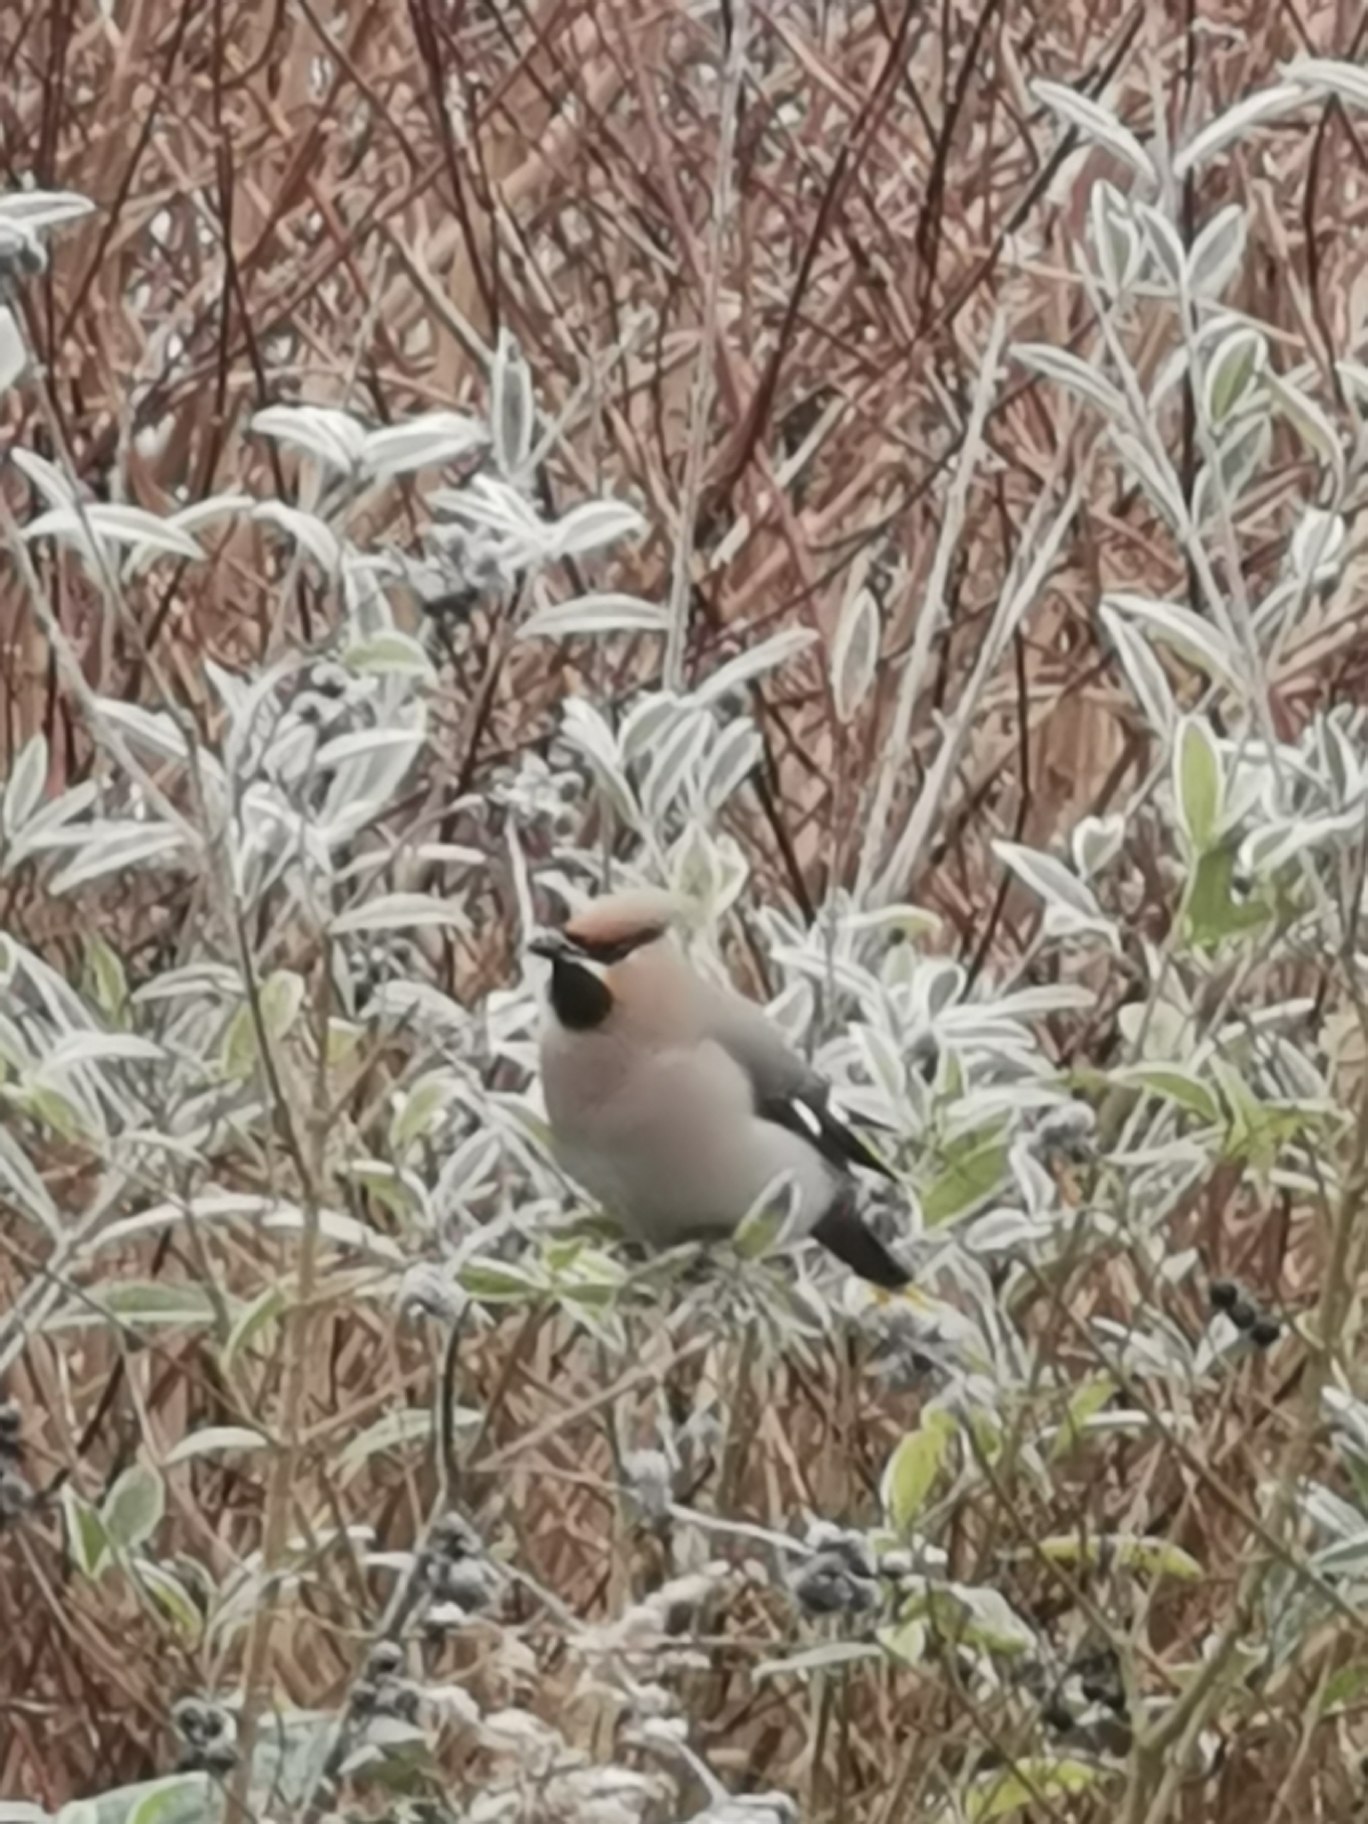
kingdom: Animalia
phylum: Chordata
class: Aves
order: Passeriformes
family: Bombycillidae
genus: Bombycilla
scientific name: Bombycilla garrulus
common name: Silkehale
